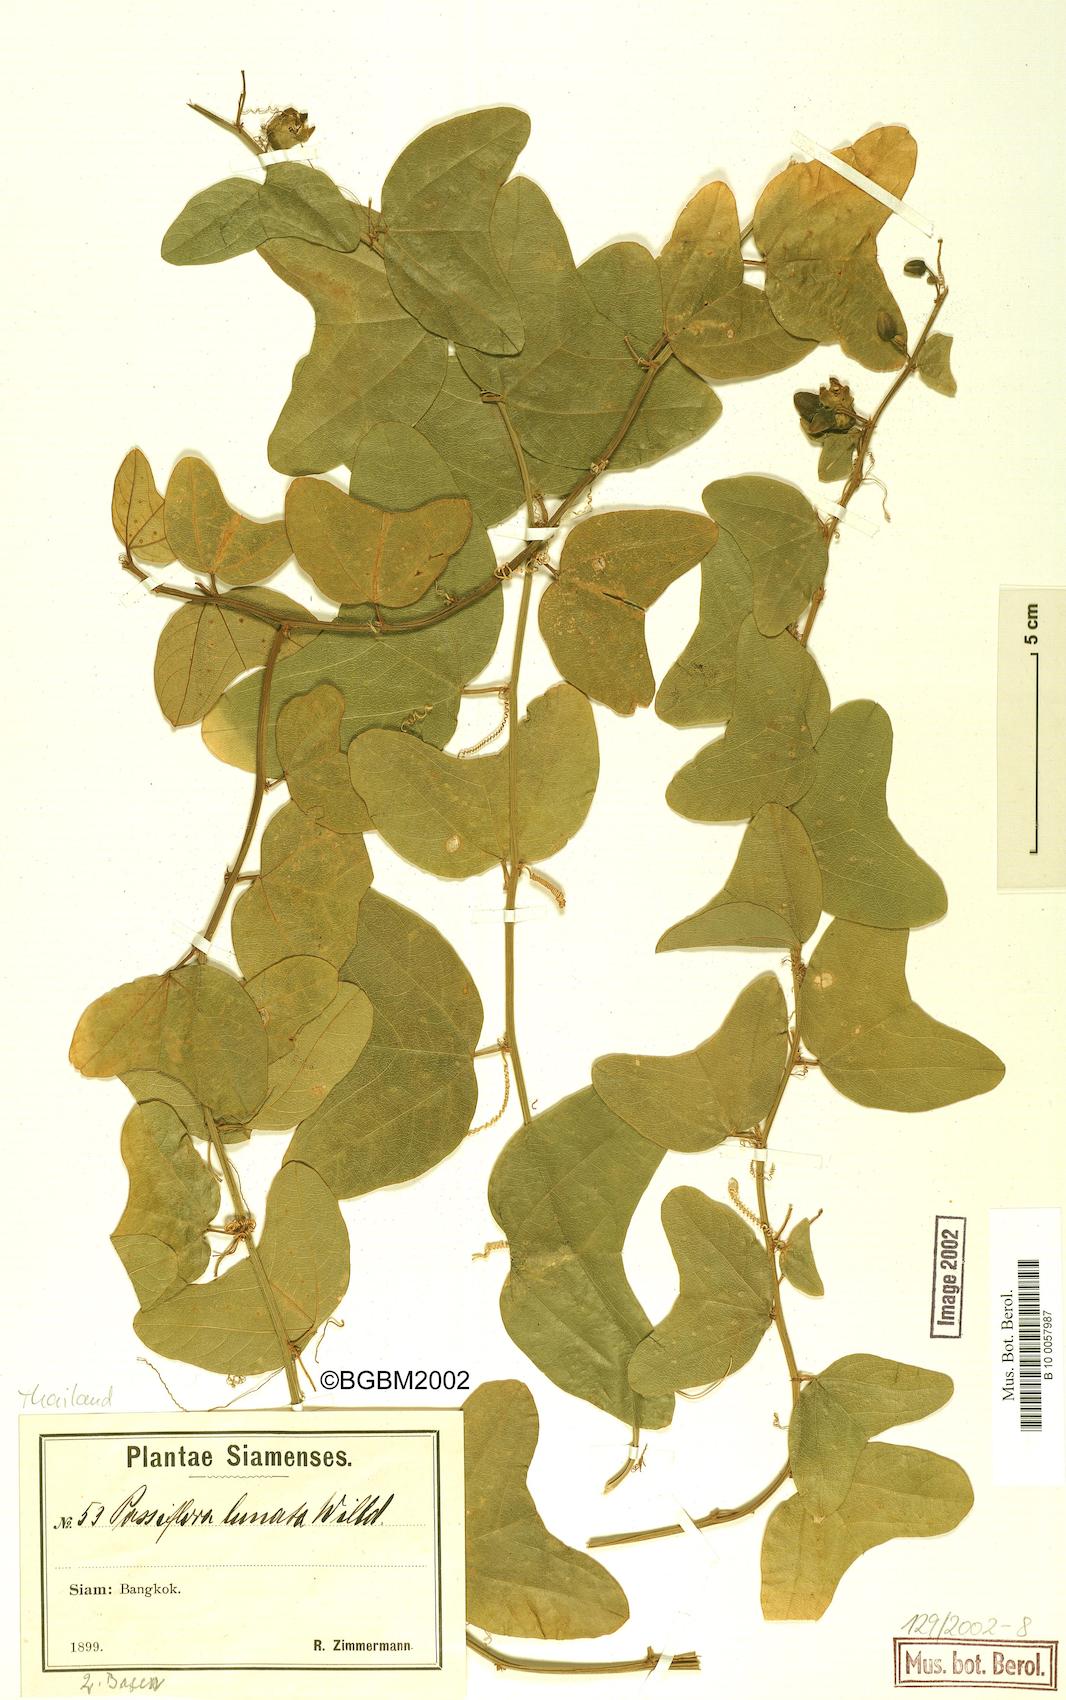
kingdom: Plantae
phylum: Tracheophyta
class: Magnoliopsida
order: Malpighiales
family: Passifloraceae
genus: Passiflora
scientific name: Passiflora
